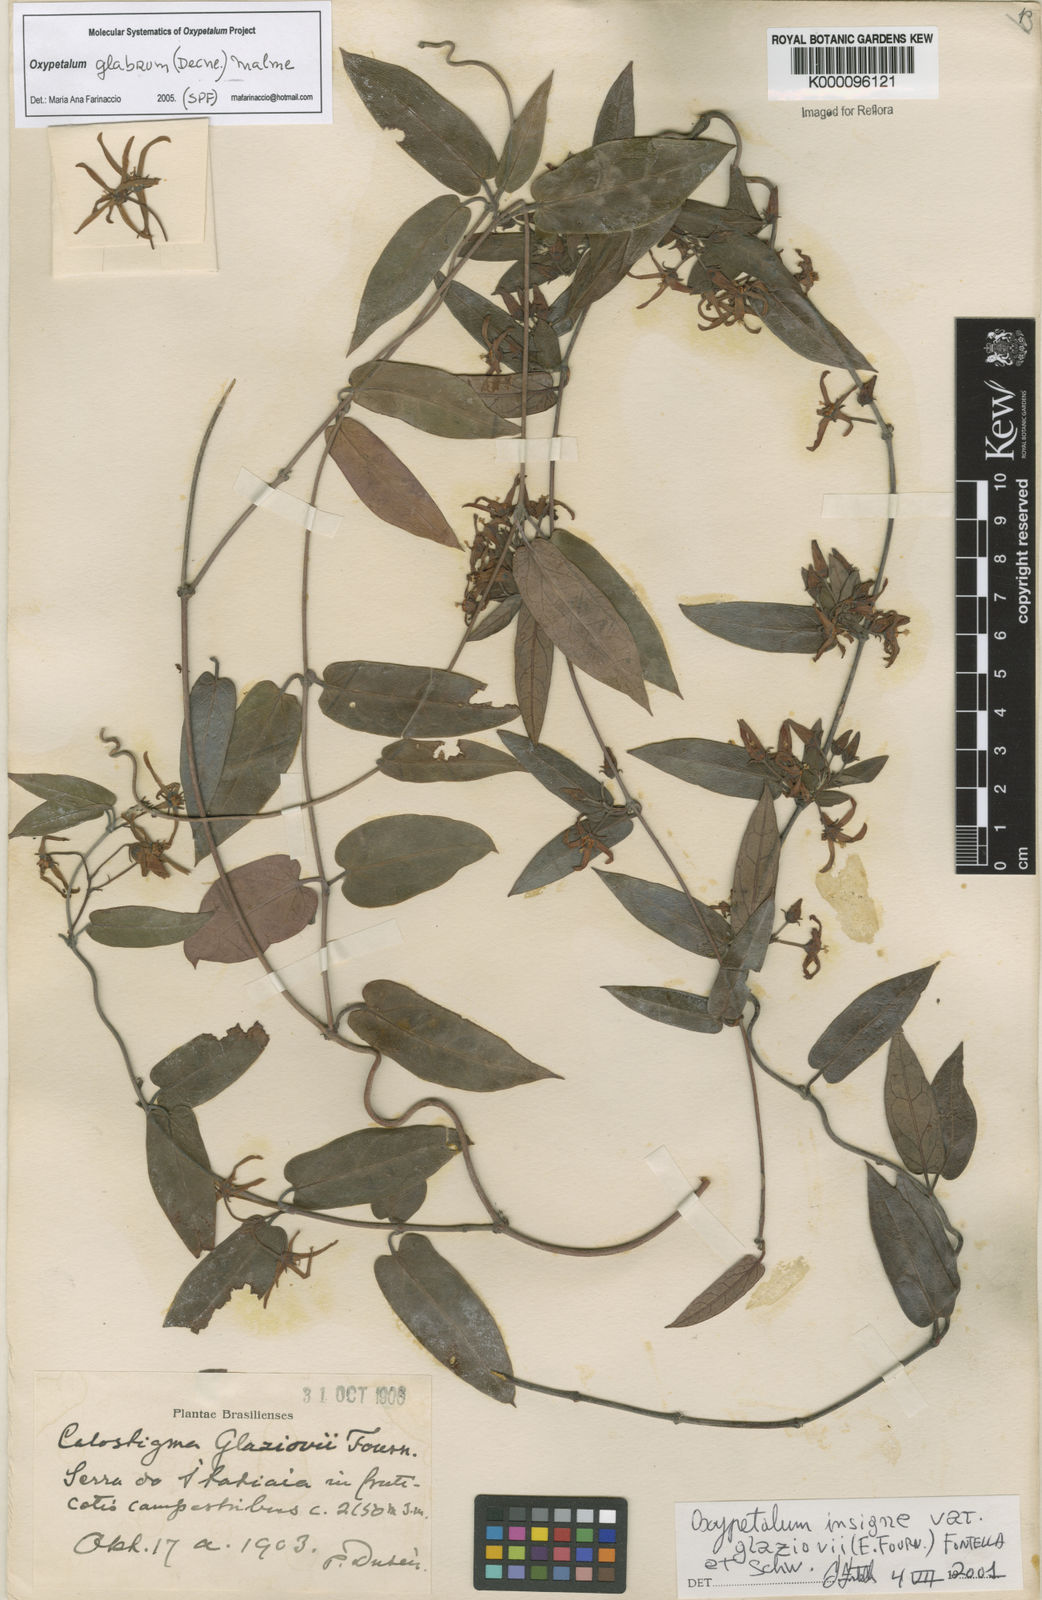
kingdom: Plantae
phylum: Tracheophyta
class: Magnoliopsida
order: Gentianales
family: Apocynaceae
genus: Oxypetalum
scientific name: Oxypetalum insigne
